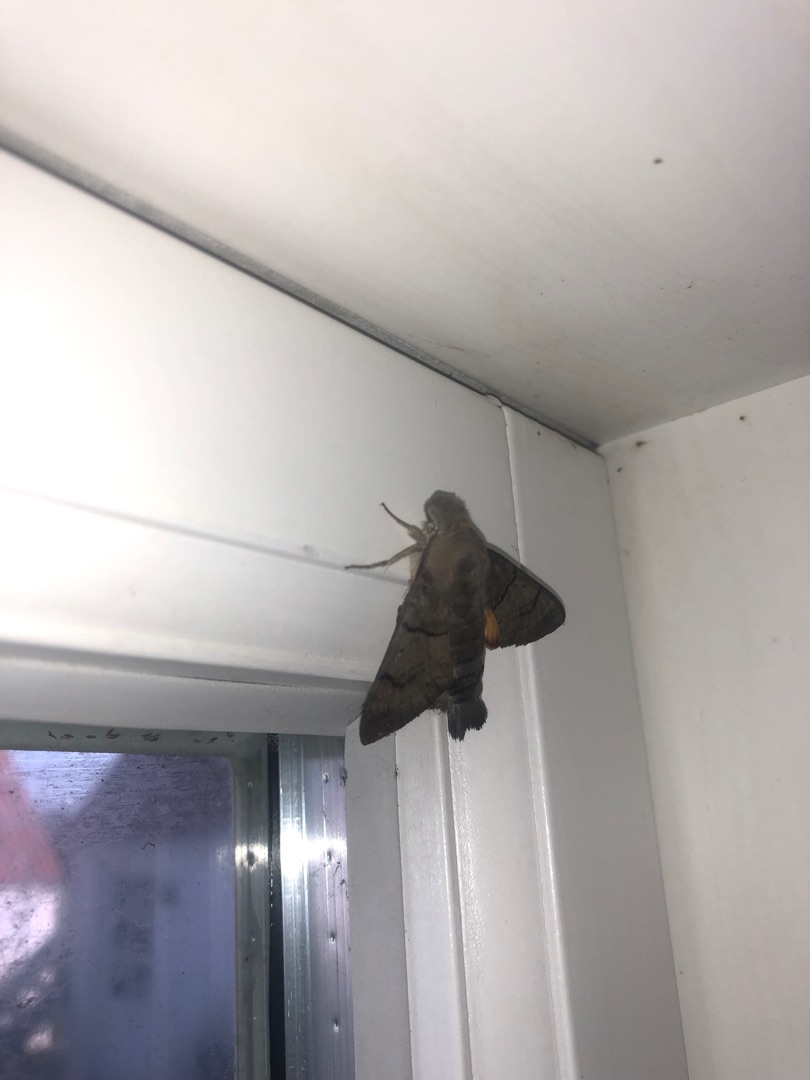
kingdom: Animalia
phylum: Arthropoda
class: Insecta
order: Lepidoptera
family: Sphingidae
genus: Macroglossum
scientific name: Macroglossum stellatarum
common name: Duehale
